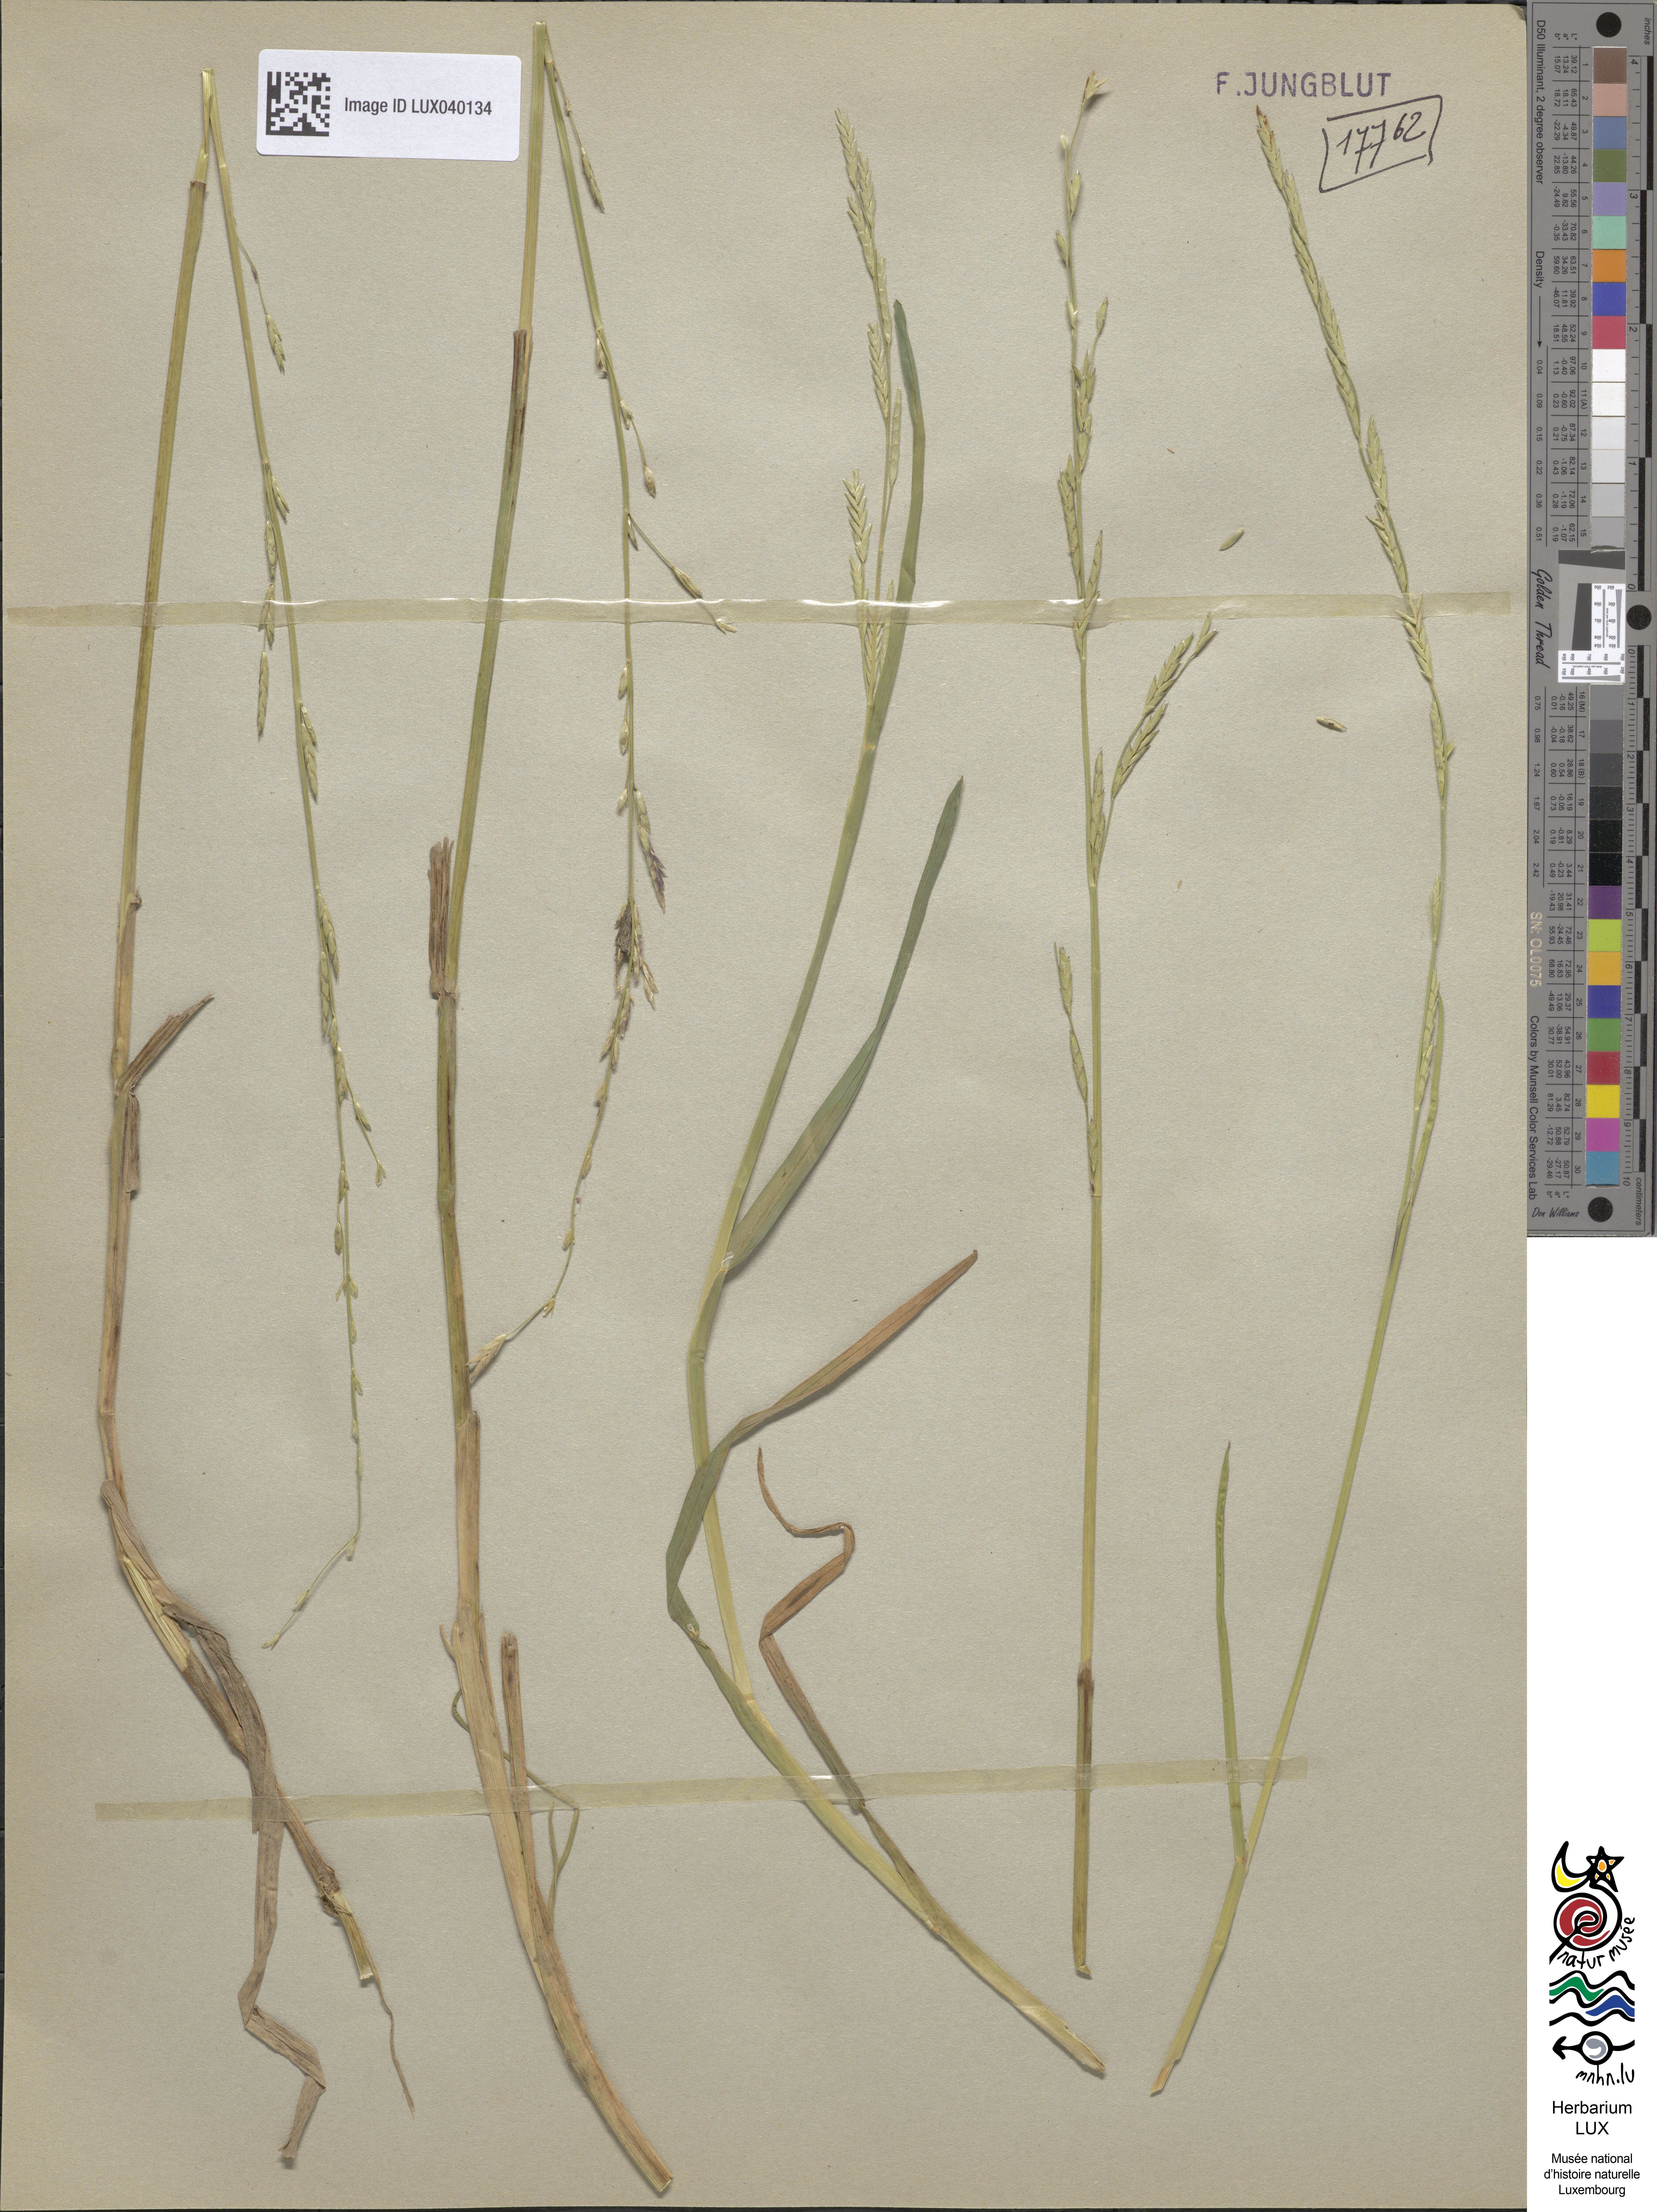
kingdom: Plantae
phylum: Tracheophyta
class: Liliopsida
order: Poales
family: Poaceae
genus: Glyceria
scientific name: Glyceria fluitans
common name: Floating sweet-grass
